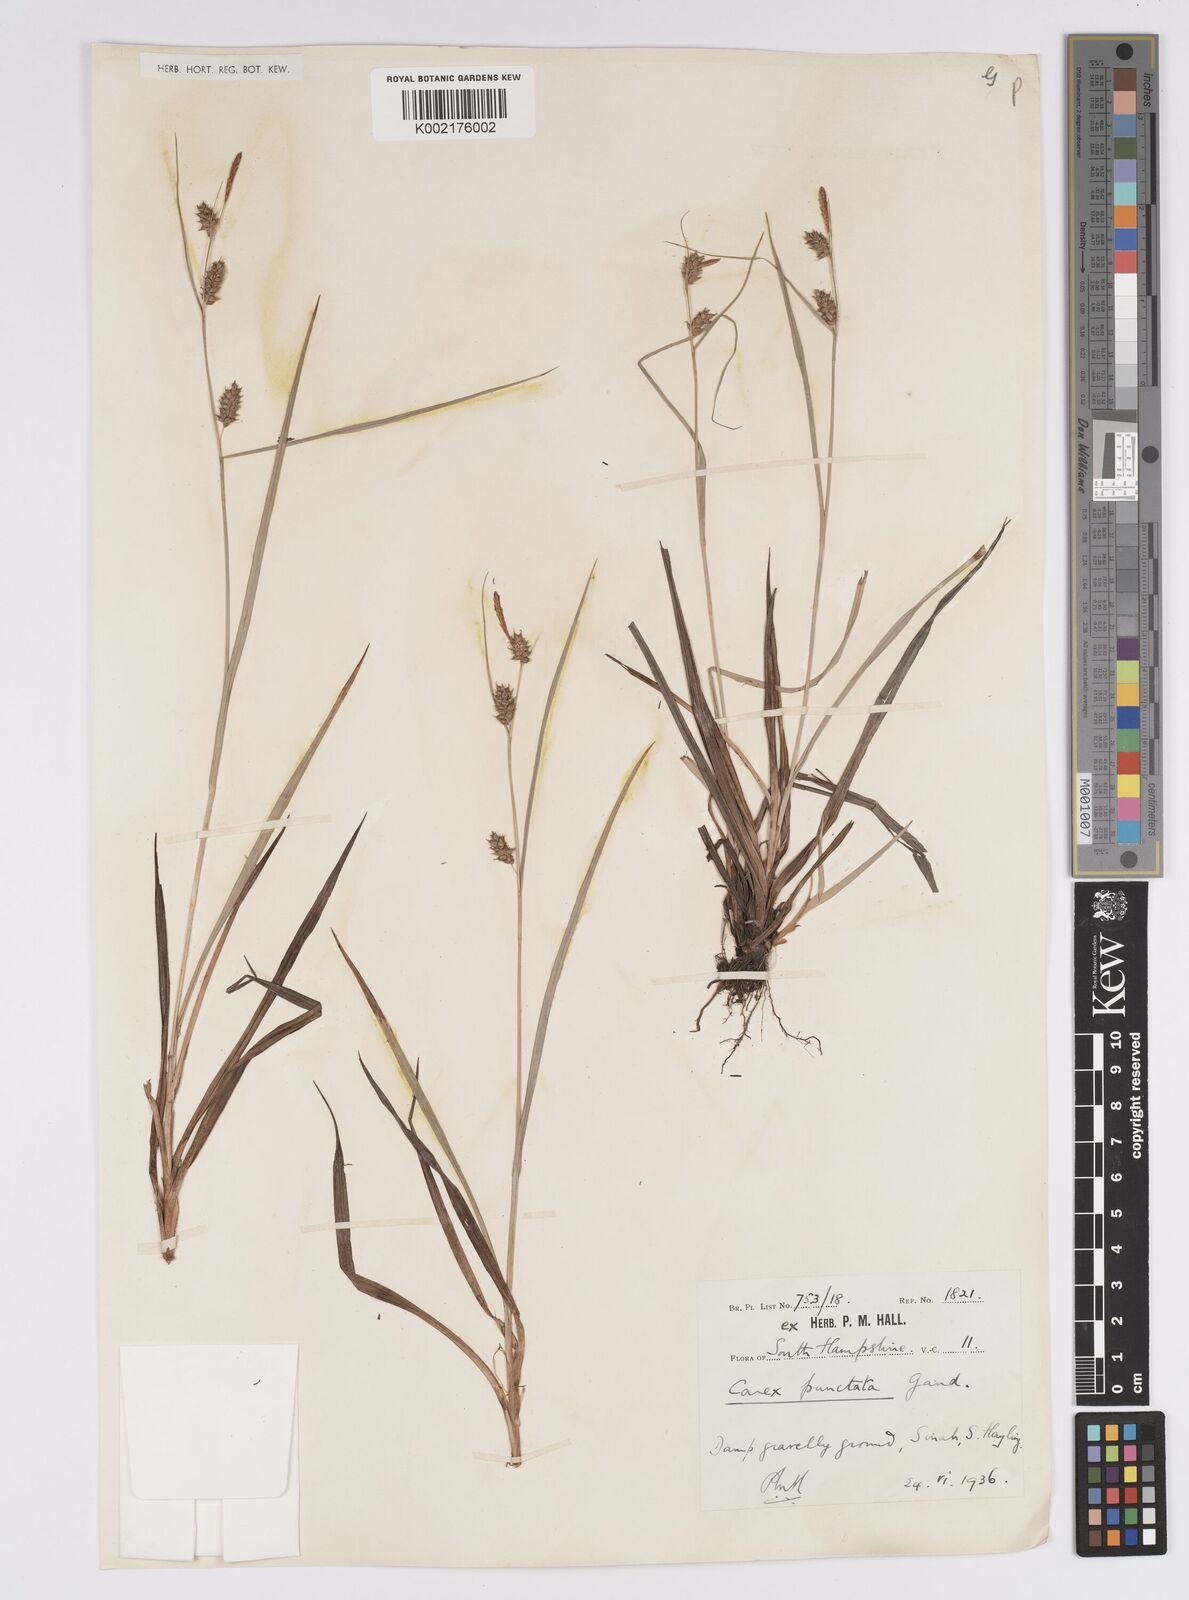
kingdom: Plantae
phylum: Tracheophyta
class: Liliopsida
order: Poales
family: Cyperaceae
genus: Carex
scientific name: Carex punctata
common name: Dotted sedge
